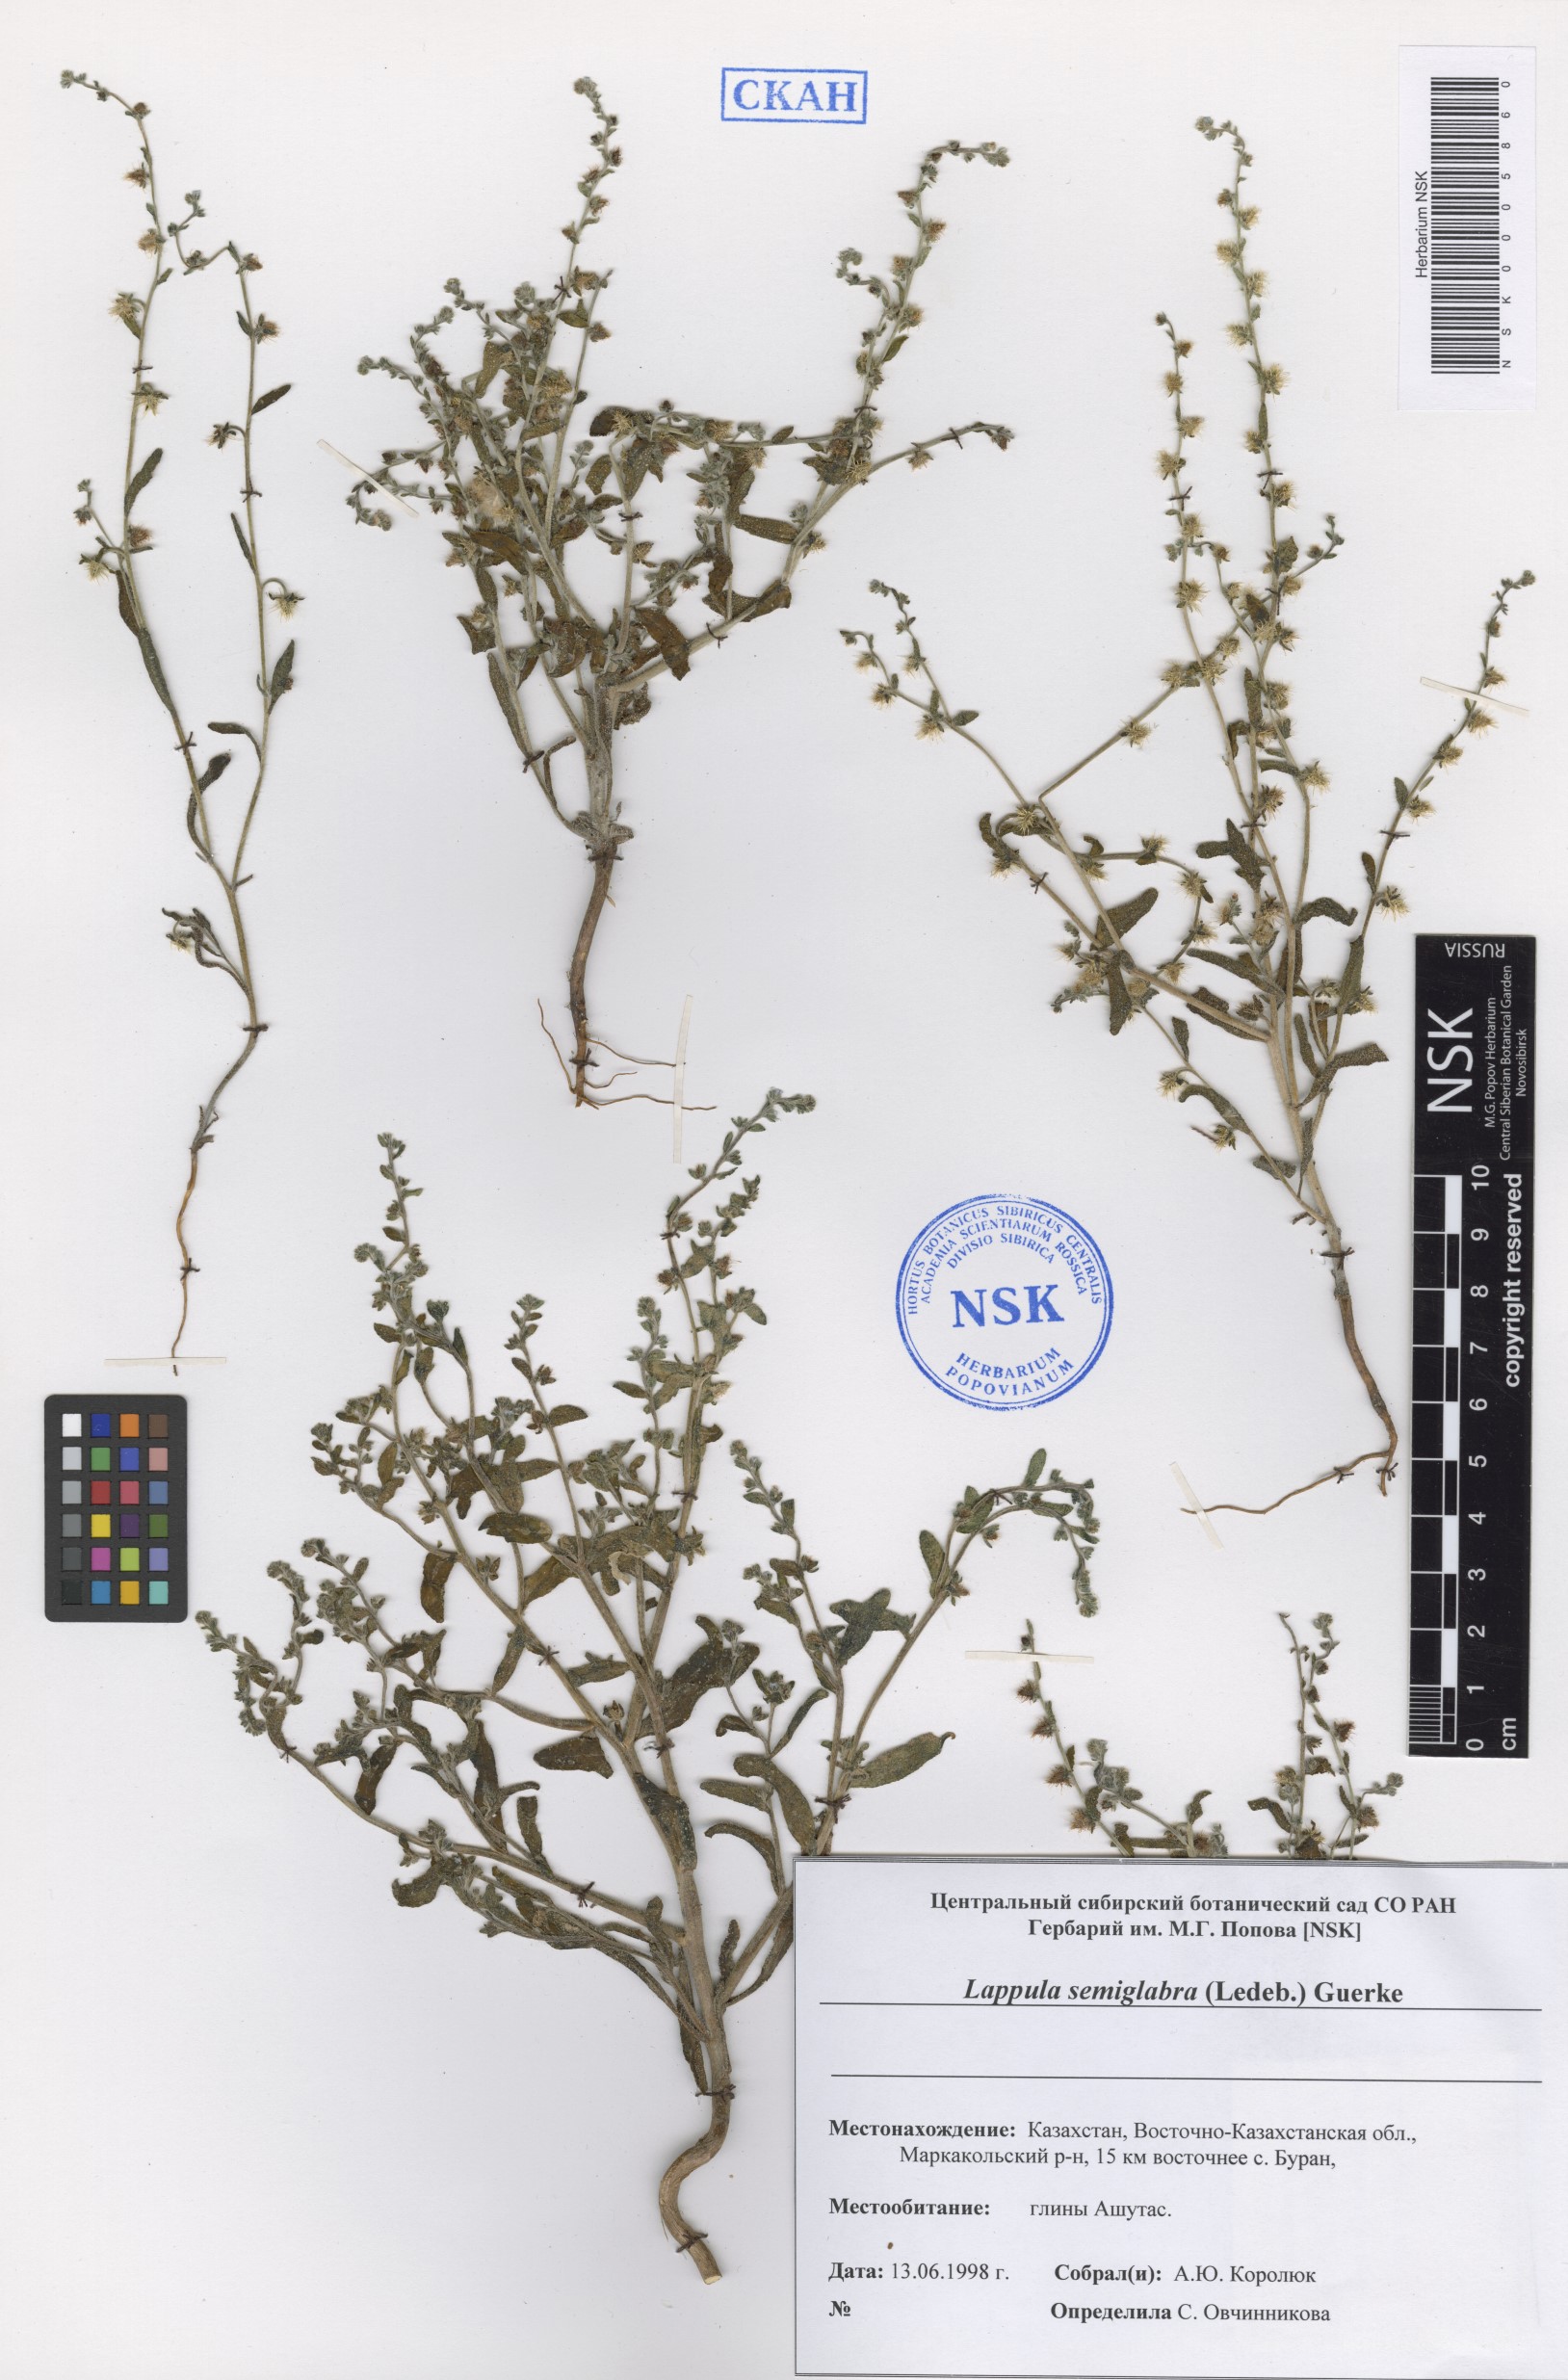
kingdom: Plantae
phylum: Tracheophyta
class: Magnoliopsida
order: Boraginales
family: Boraginaceae
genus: Lappula
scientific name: Lappula patula
